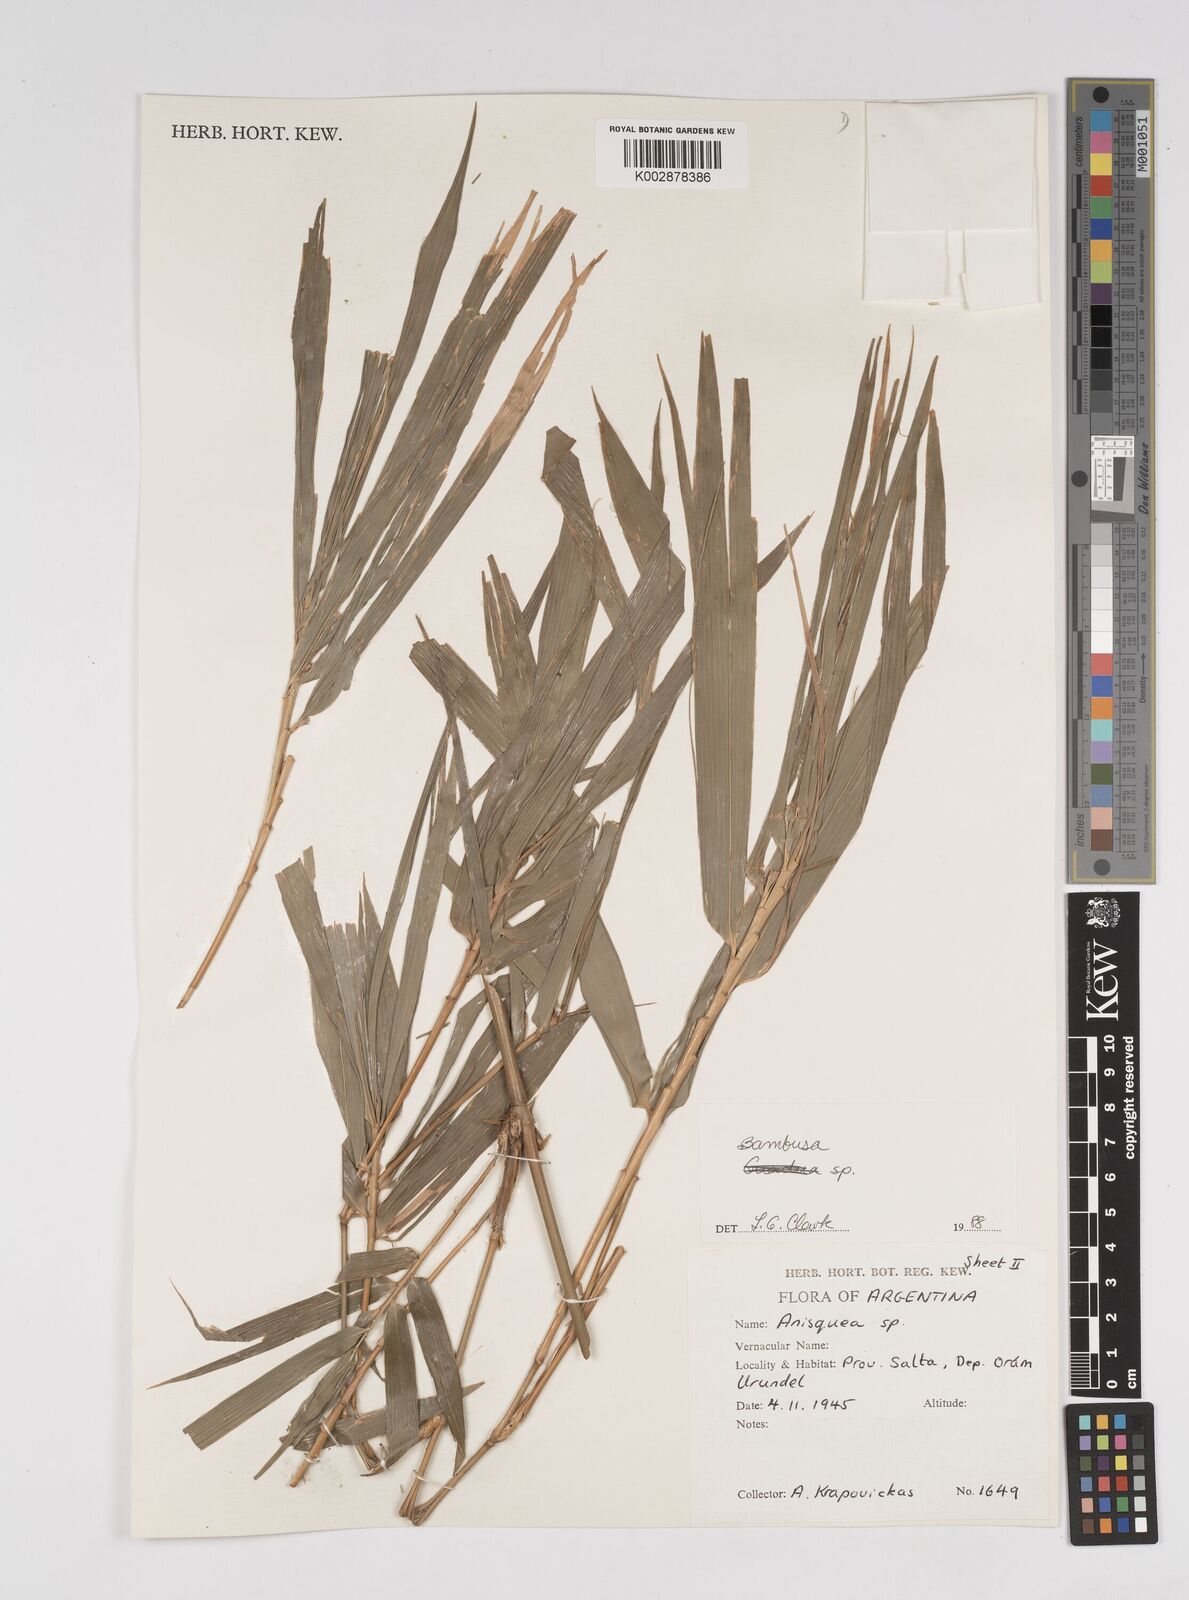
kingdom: Plantae
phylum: Tracheophyta
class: Liliopsida
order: Poales
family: Poaceae
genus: Bambusa
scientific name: Bambusa
